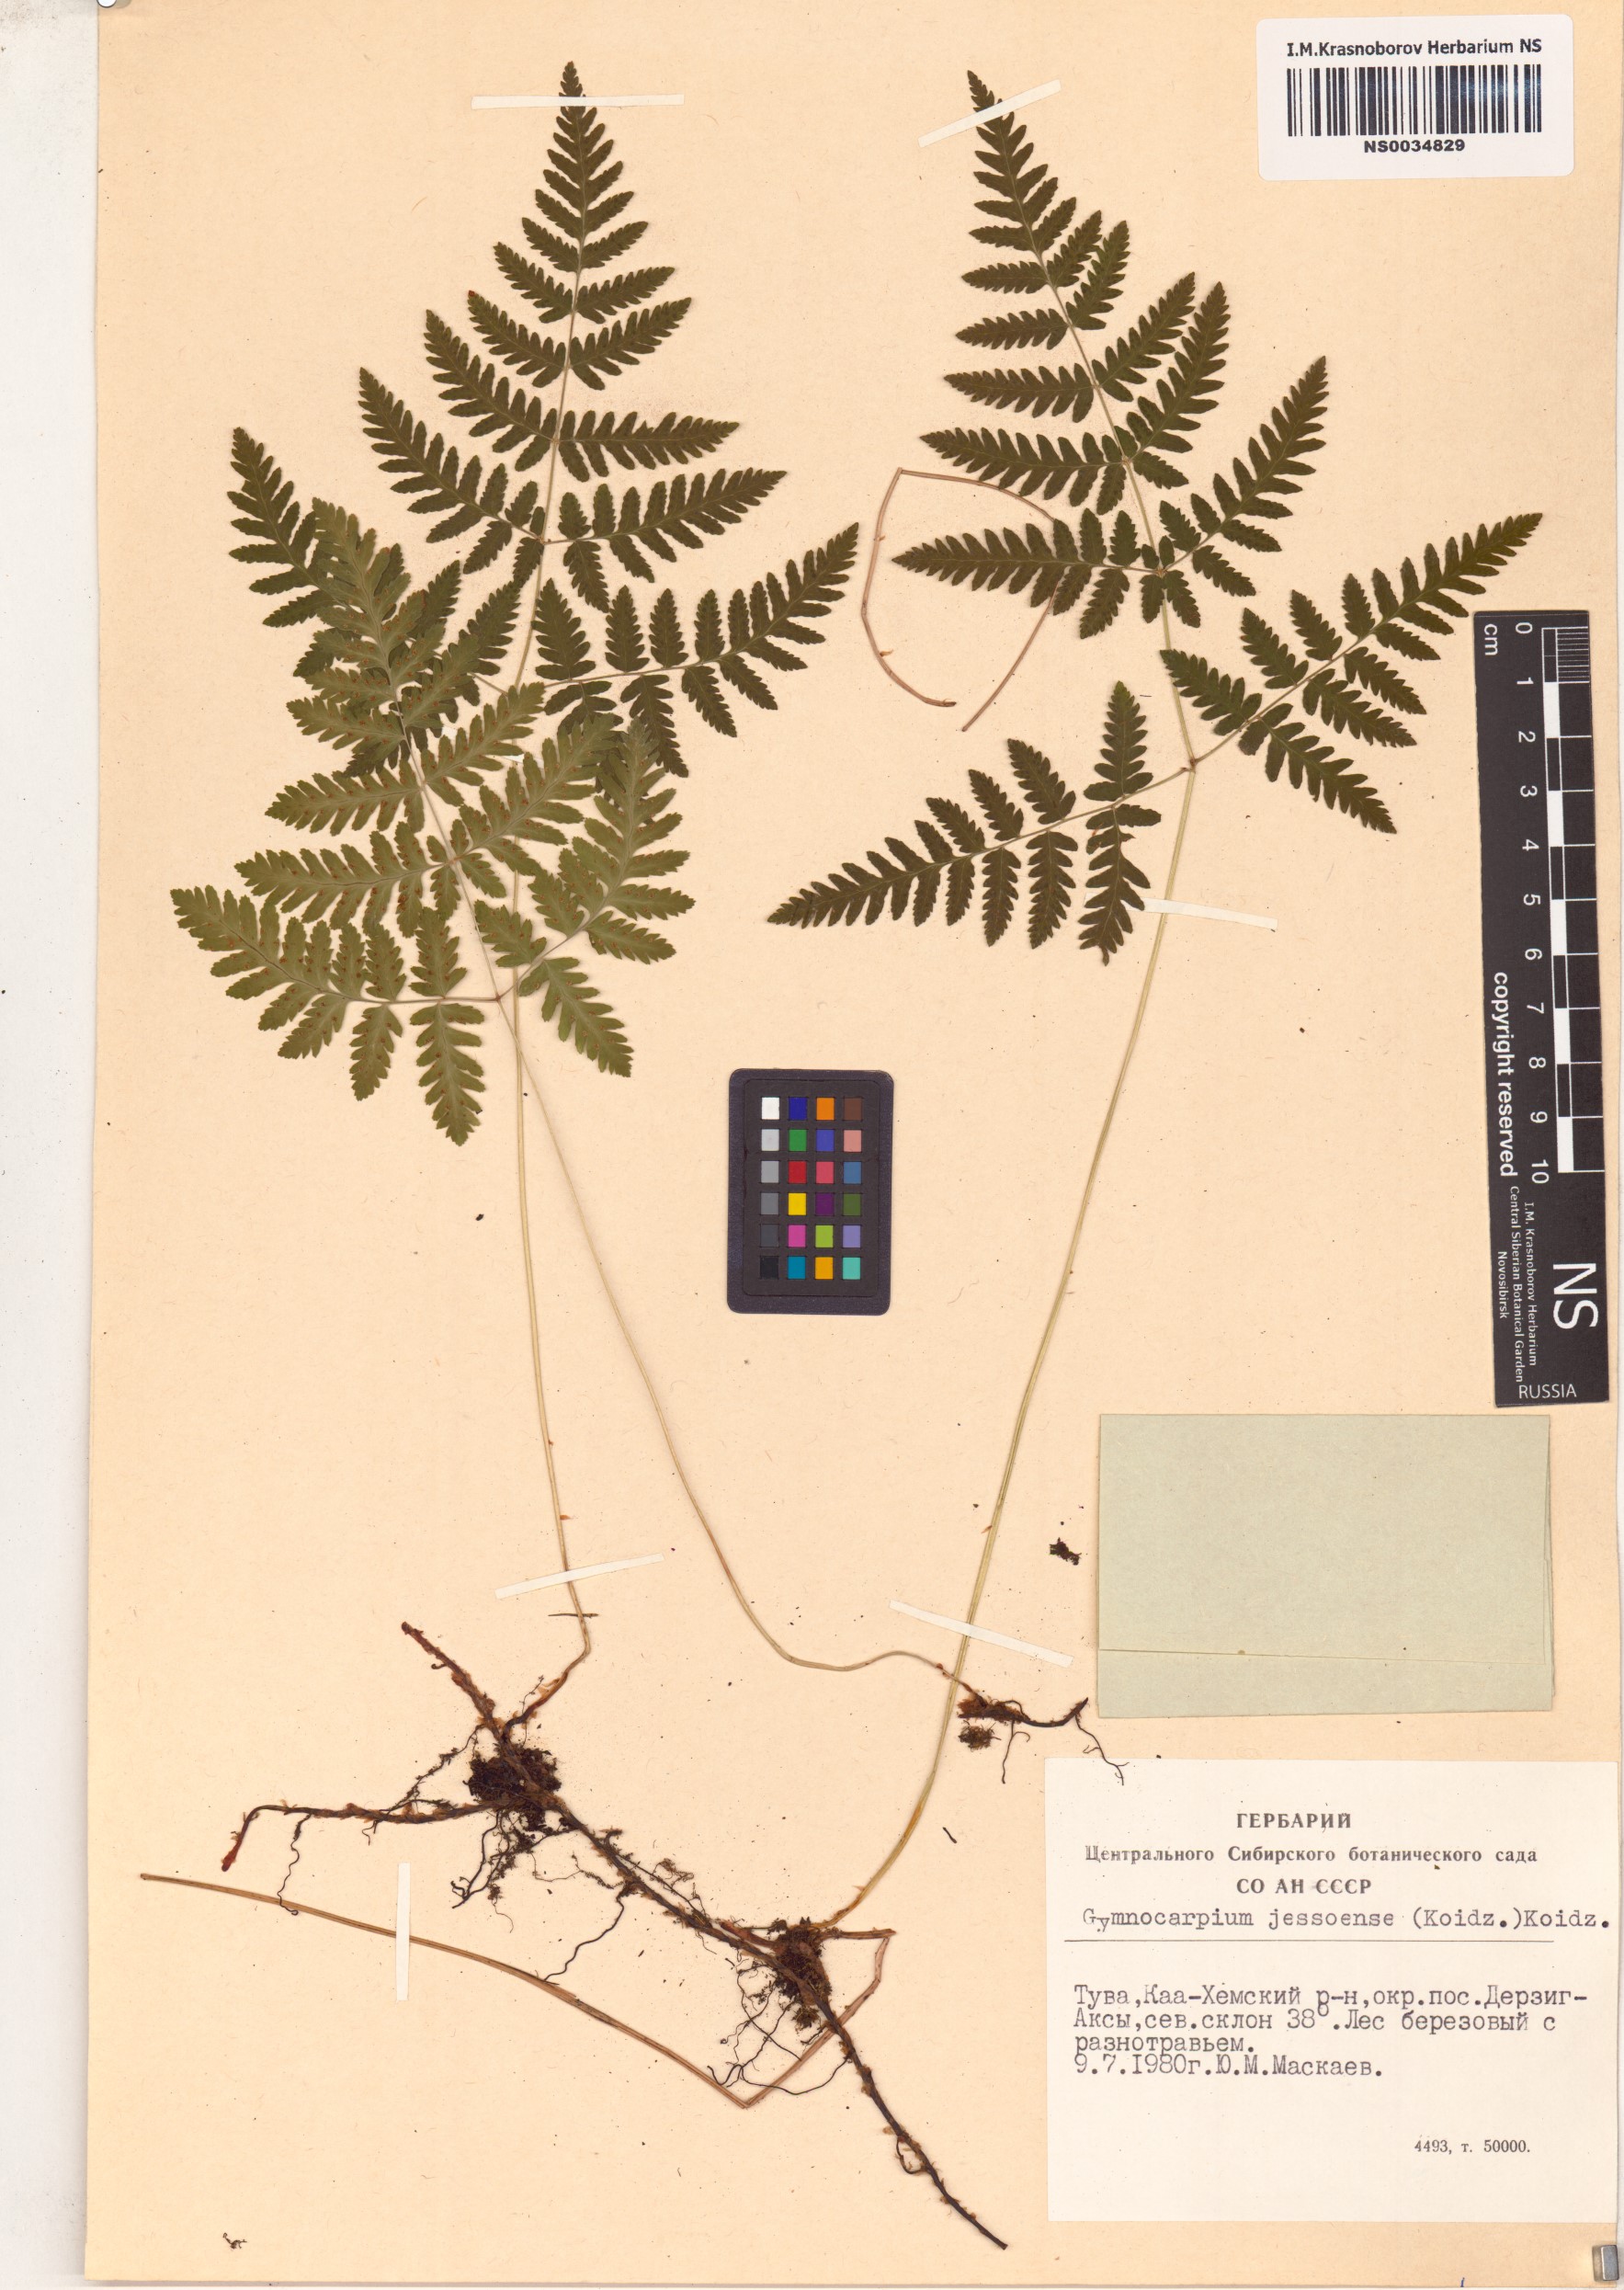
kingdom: Plantae
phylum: Tracheophyta
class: Polypodiopsida
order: Polypodiales
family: Cystopteridaceae
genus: Gymnocarpium
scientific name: Gymnocarpium jessoense
